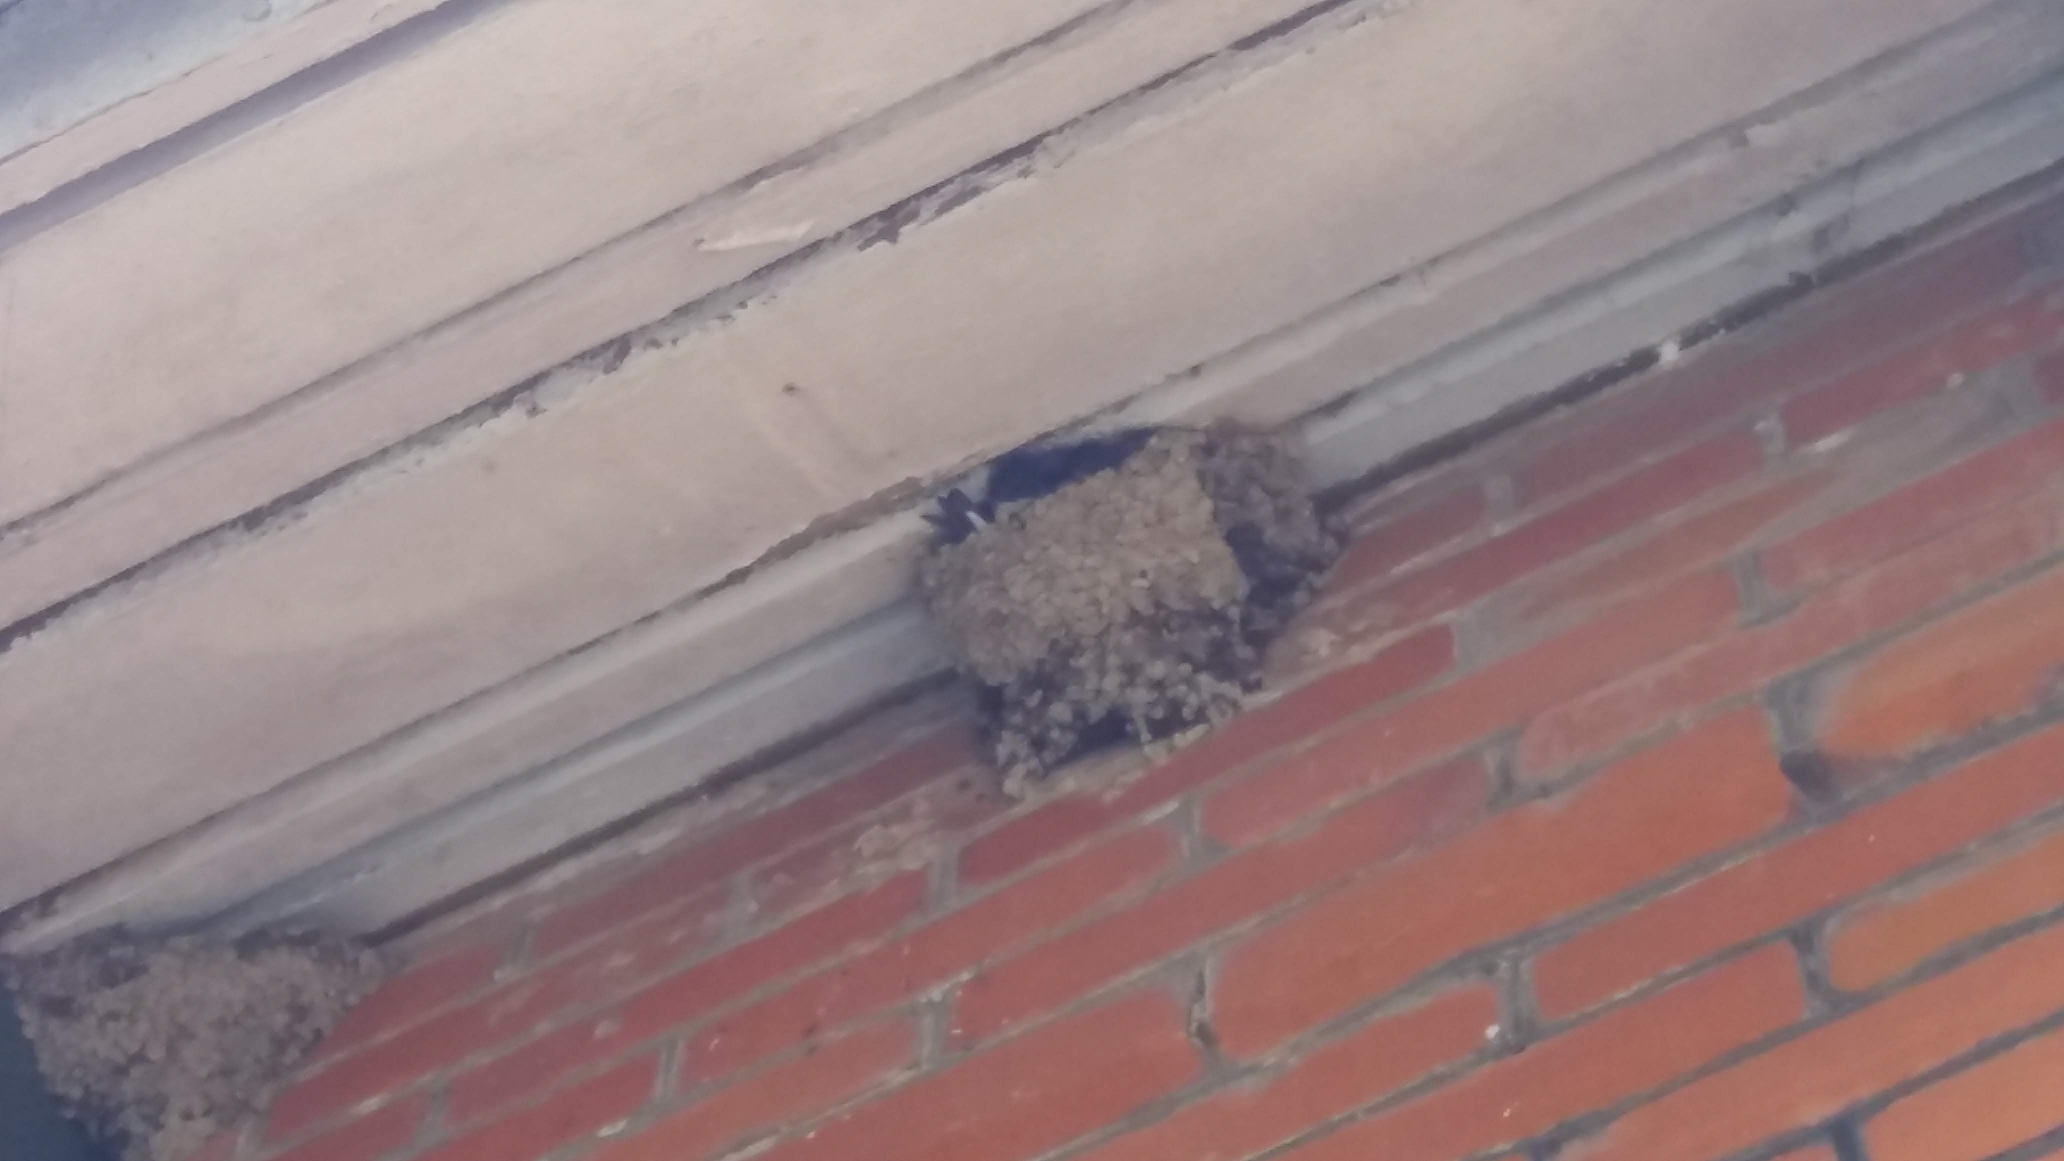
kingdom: Animalia
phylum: Chordata
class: Aves
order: Passeriformes
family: Hirundinidae
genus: Delichon
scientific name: Delichon urbicum
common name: Bysvale
